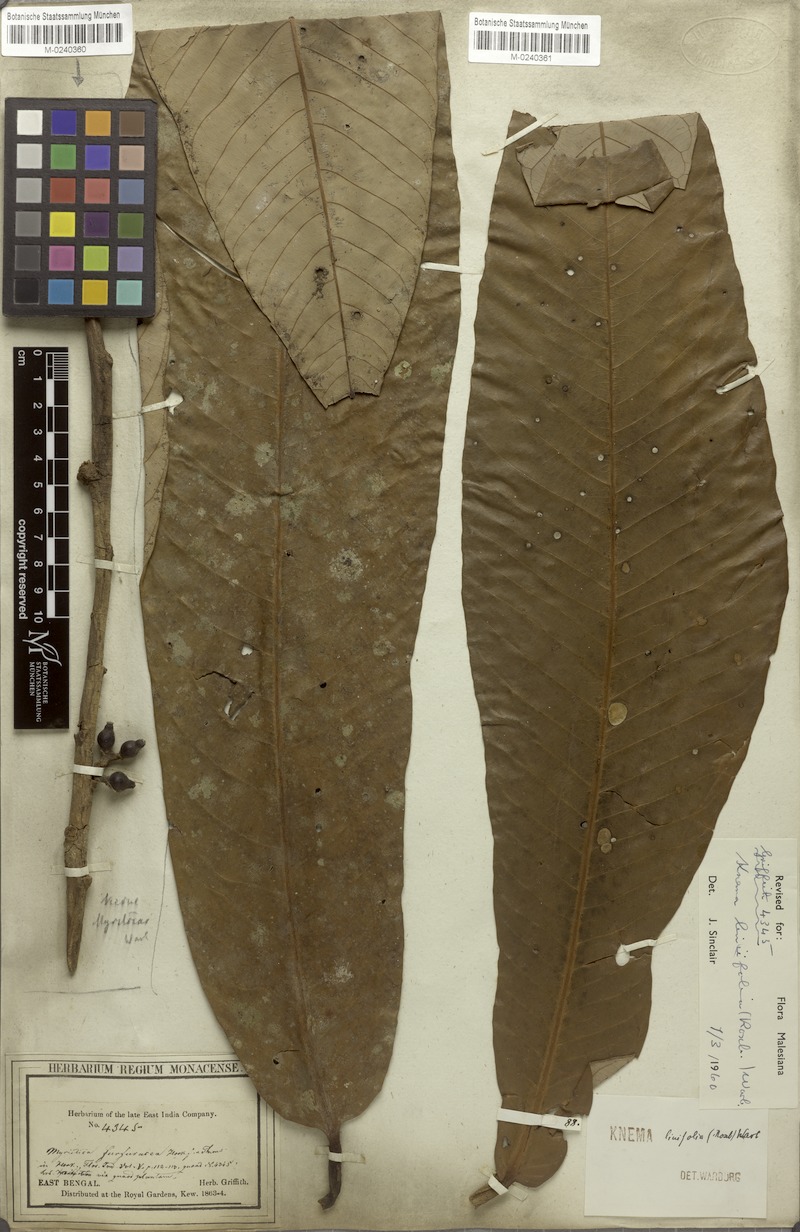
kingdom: Plantae
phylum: Tracheophyta
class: Magnoliopsida
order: Magnoliales
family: Myristicaceae
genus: Knema
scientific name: Knema linifolia
